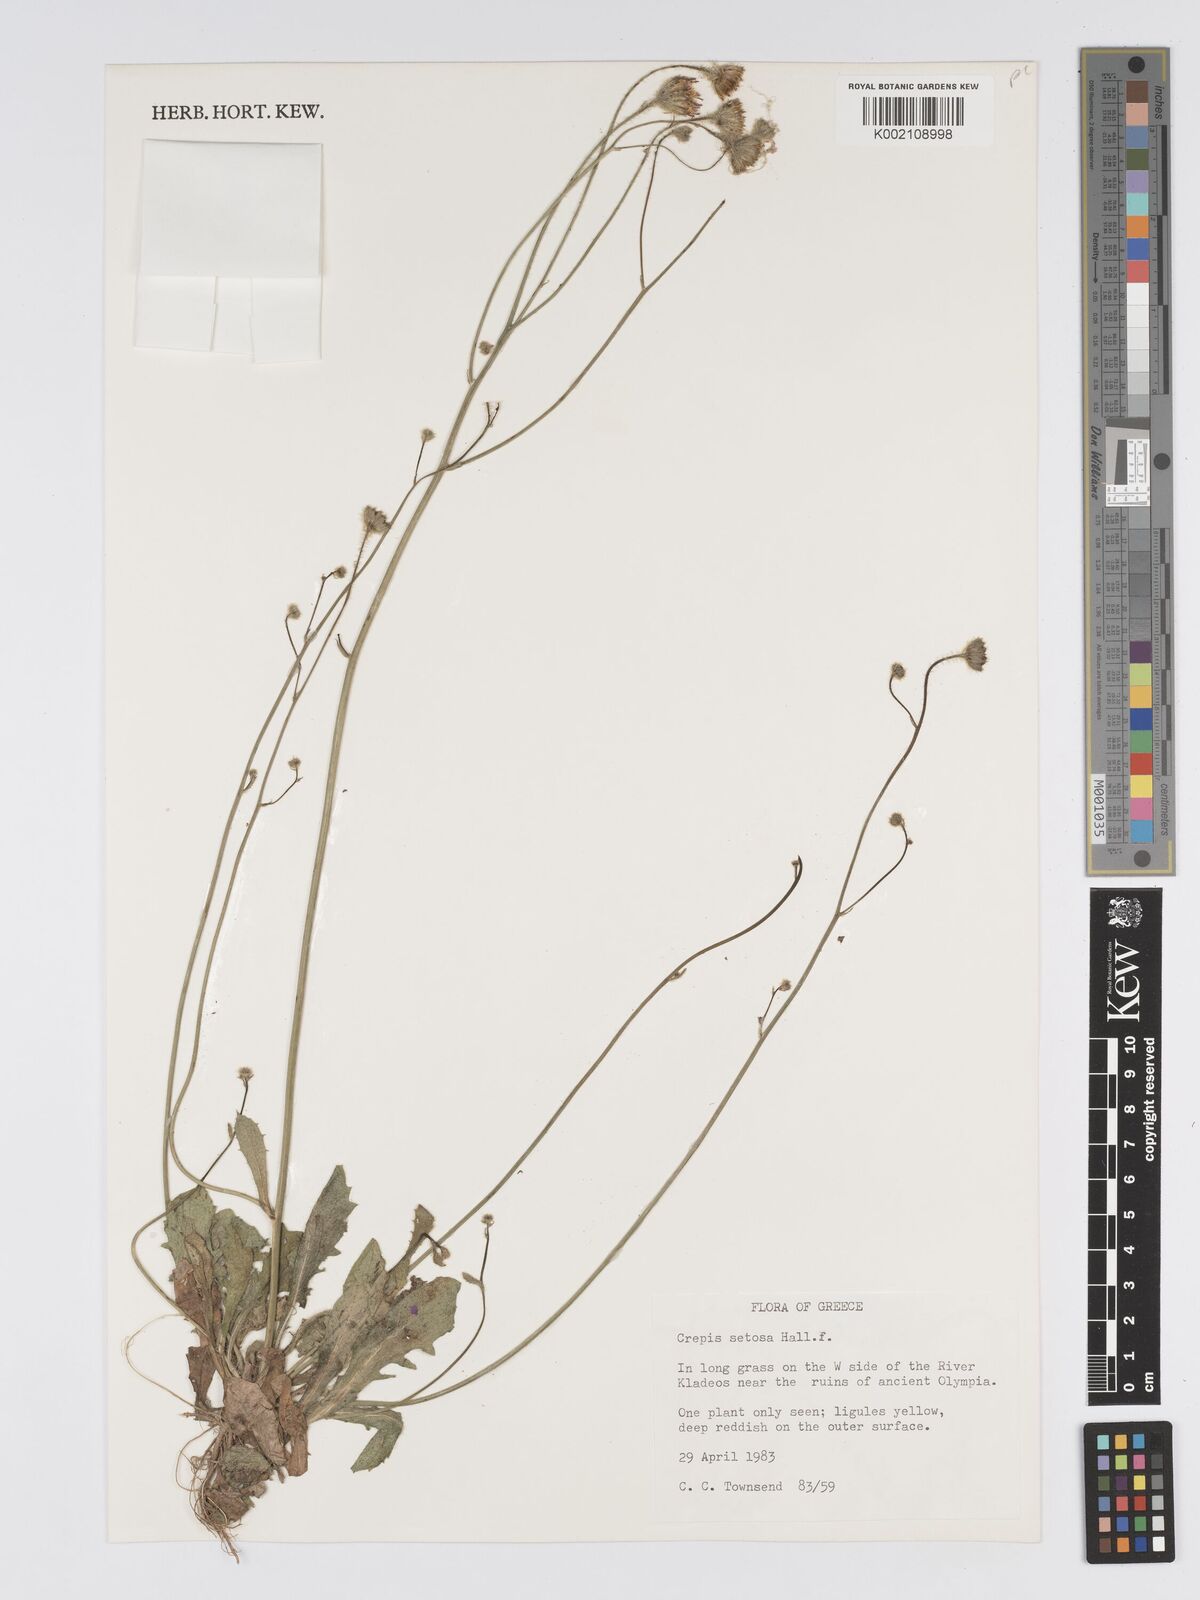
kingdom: Plantae
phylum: Tracheophyta
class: Magnoliopsida
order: Asterales
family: Asteraceae
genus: Crepis
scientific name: Crepis setosa
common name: Bristly hawk's-beard
